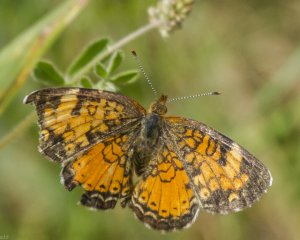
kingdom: Animalia
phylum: Arthropoda
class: Insecta
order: Lepidoptera
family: Nymphalidae
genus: Phyciodes
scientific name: Phyciodes tharos
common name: Northern Crescent
